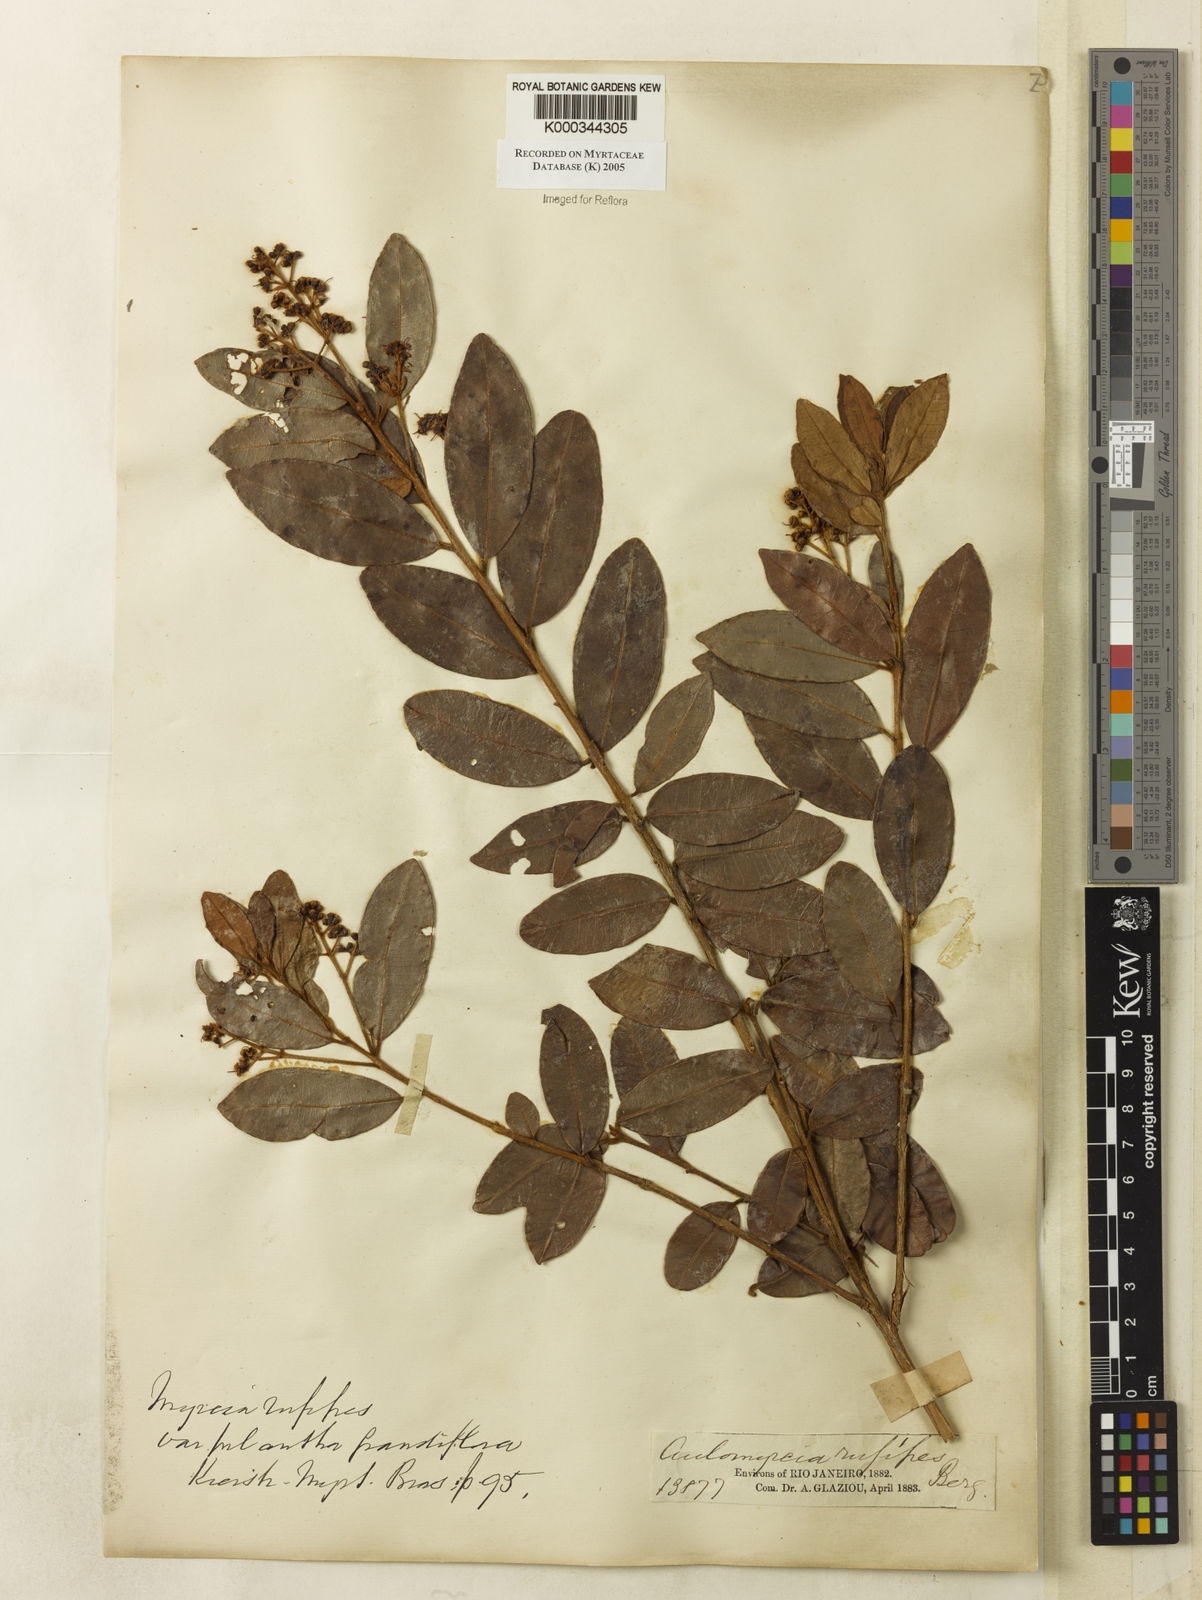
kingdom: Plantae
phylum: Tracheophyta
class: Magnoliopsida
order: Myrtales
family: Myrtaceae
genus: Myrcia
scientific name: Myrcia rufipes
